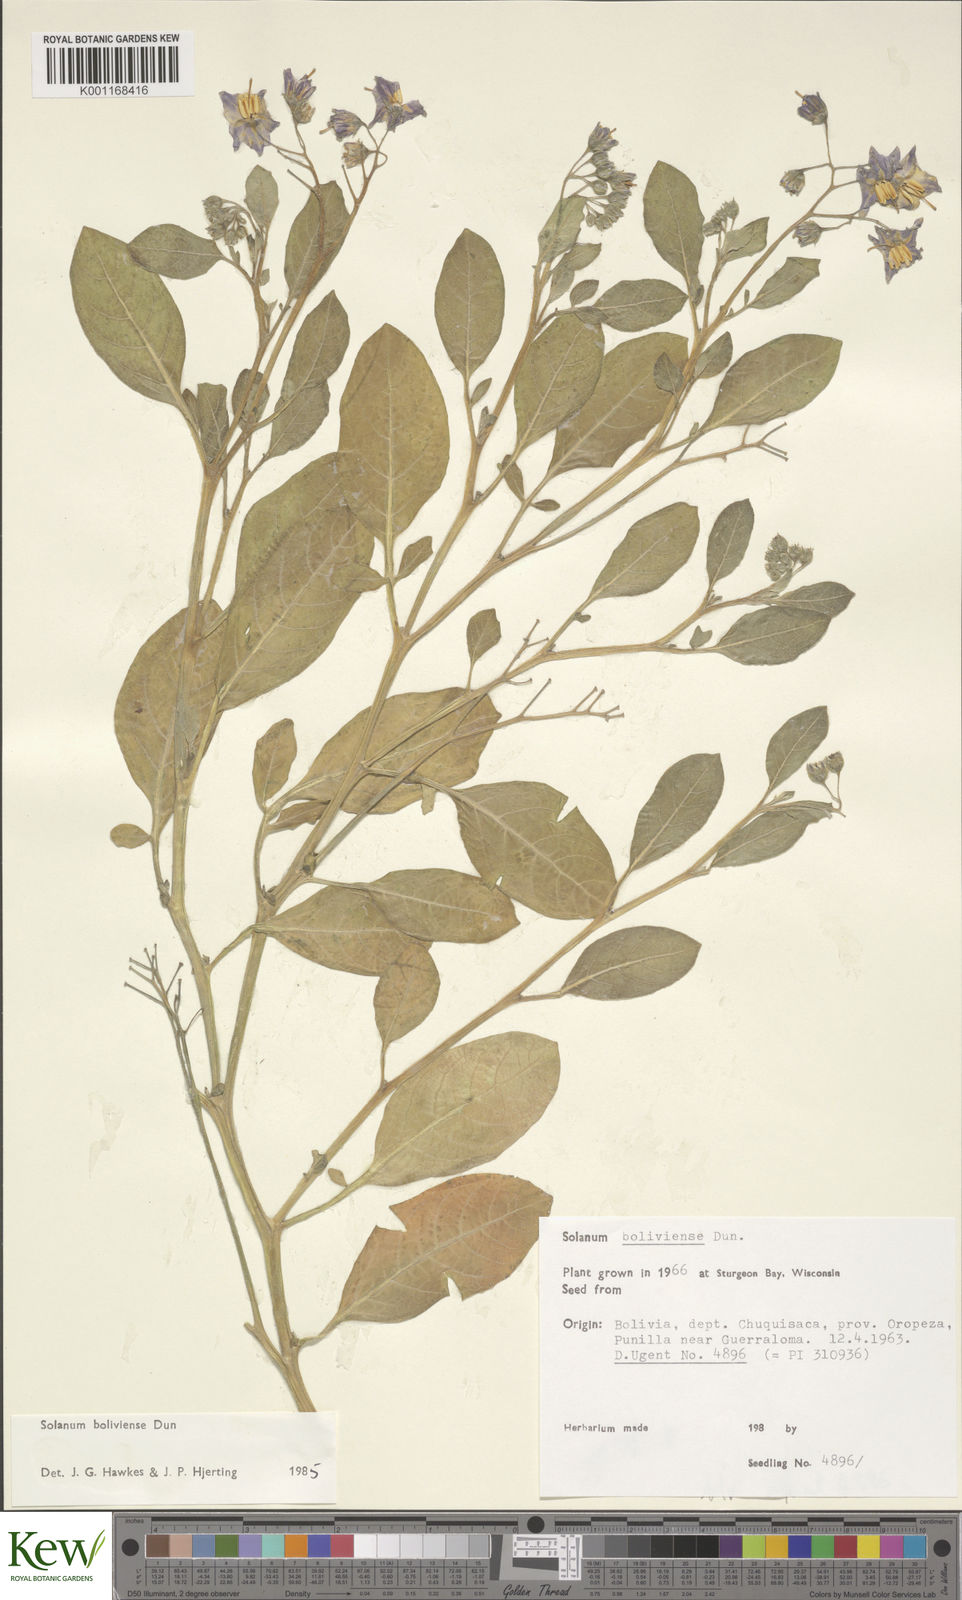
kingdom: Plantae
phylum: Tracheophyta
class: Magnoliopsida
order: Solanales
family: Solanaceae
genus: Solanum
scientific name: Solanum boliviense
